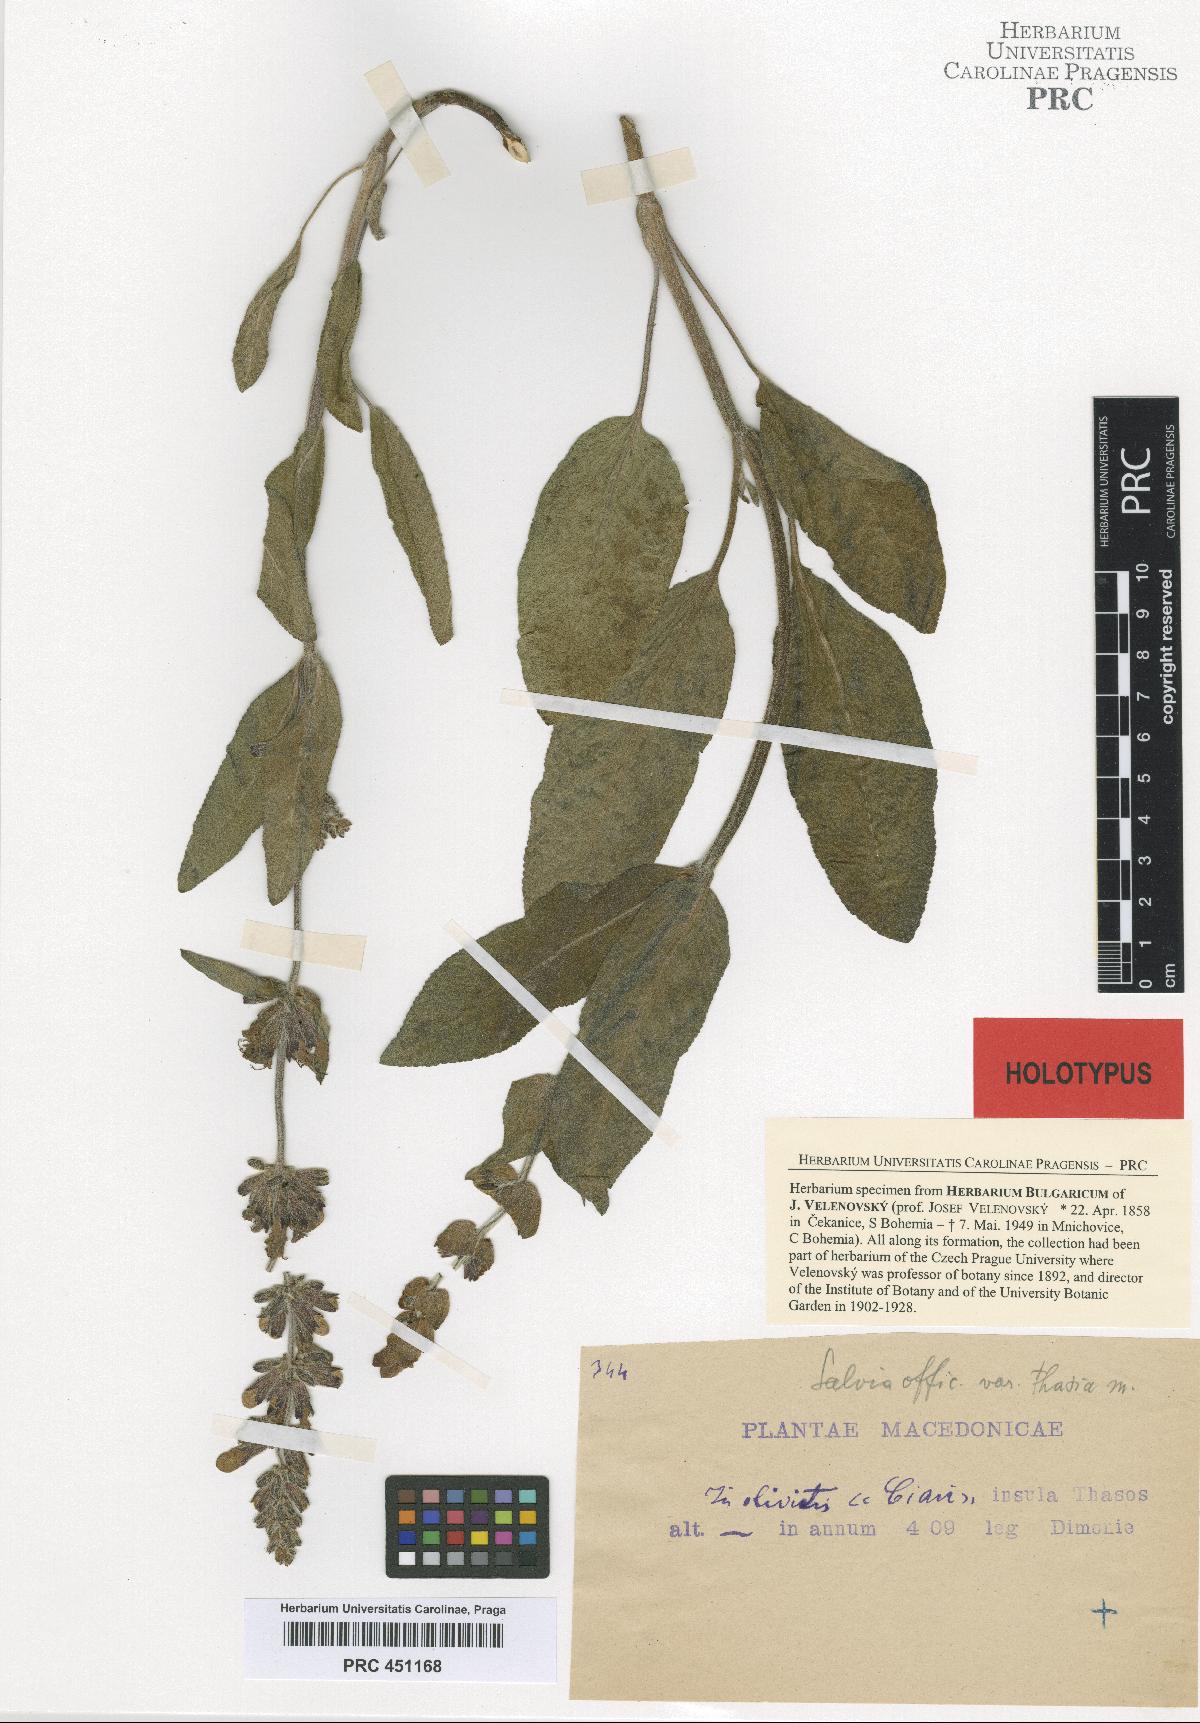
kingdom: Plantae
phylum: Tracheophyta
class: Magnoliopsida
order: Lamiales
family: Lamiaceae
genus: Salvia
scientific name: Salvia officinalis
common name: Sage
